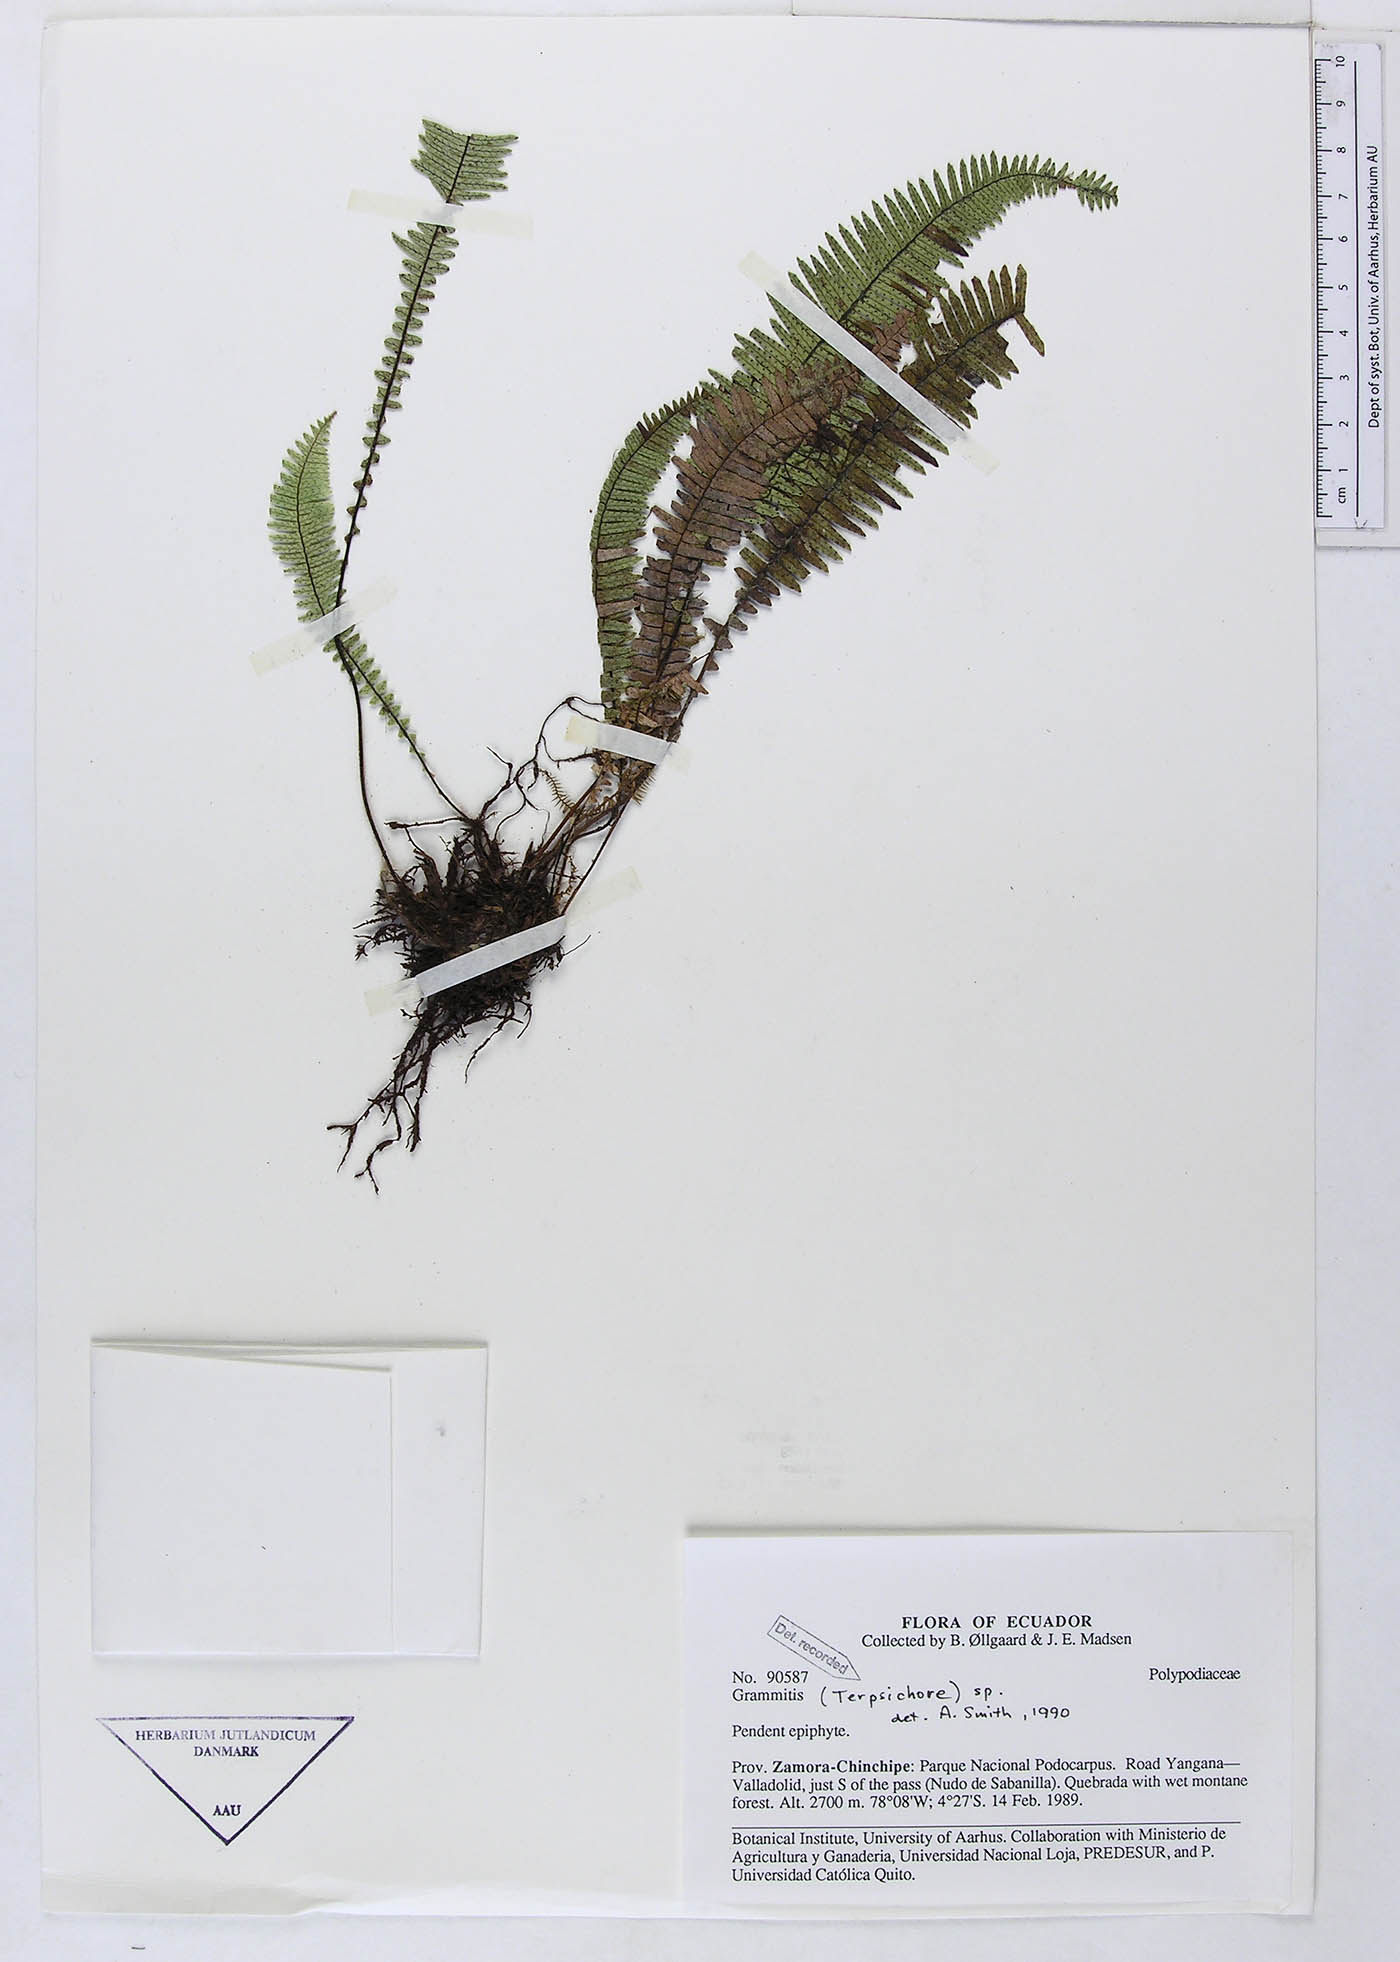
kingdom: Plantae
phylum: Tracheophyta
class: Polypodiopsida
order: Polypodiales
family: Polypodiaceae
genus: Grammitis
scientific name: Grammitis
